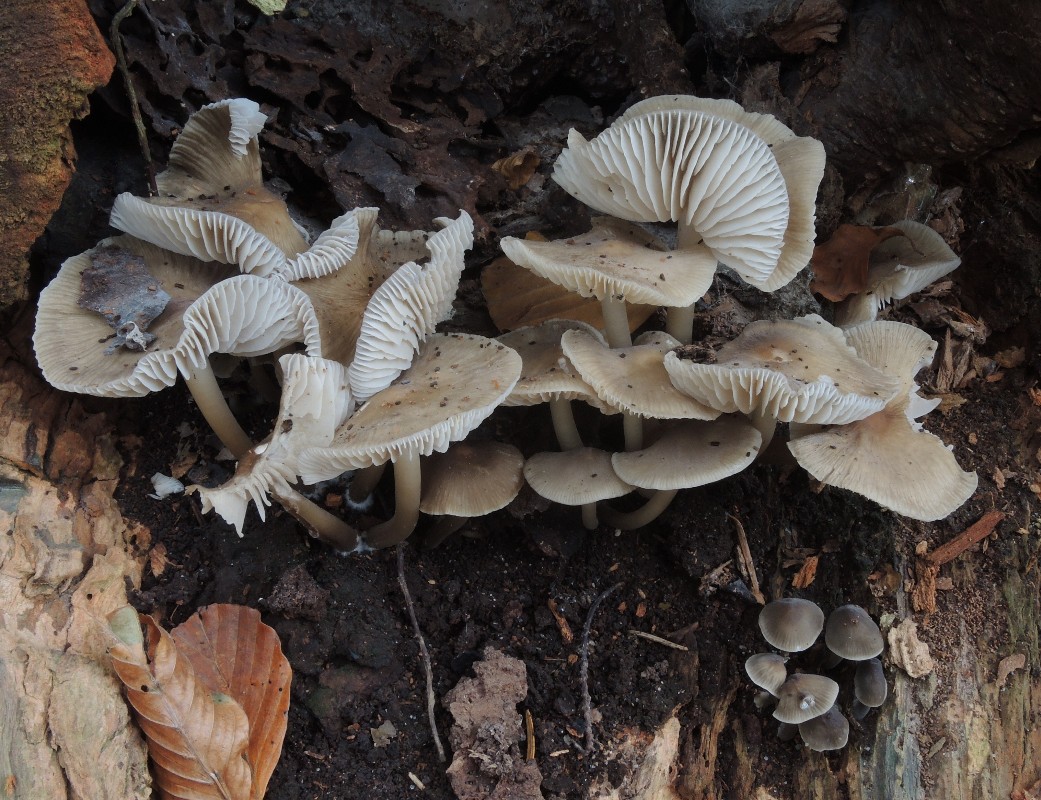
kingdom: Fungi
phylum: Basidiomycota
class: Agaricomycetes
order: Agaricales
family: Mycenaceae
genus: Mycena
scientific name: Mycena galericulata
